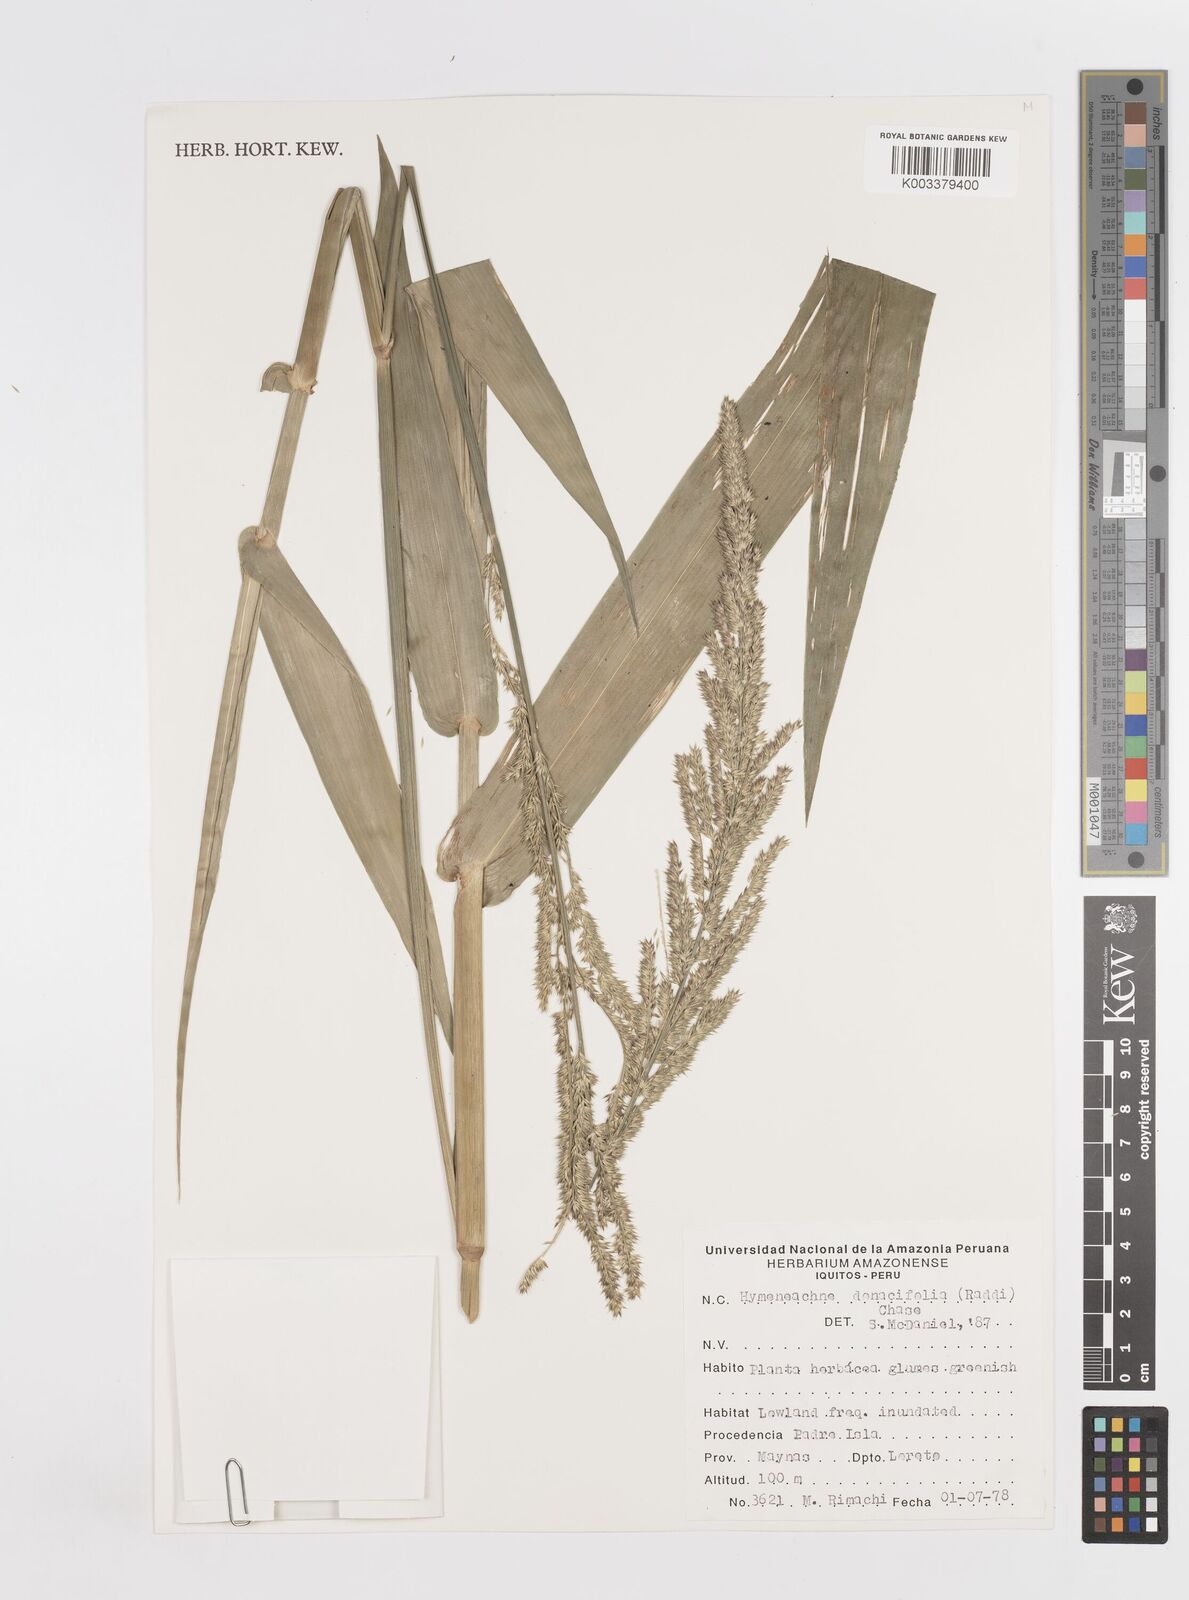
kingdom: Plantae
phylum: Tracheophyta
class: Liliopsida
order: Poales
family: Poaceae
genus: Hymenachne
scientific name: Hymenachne donacifolia
